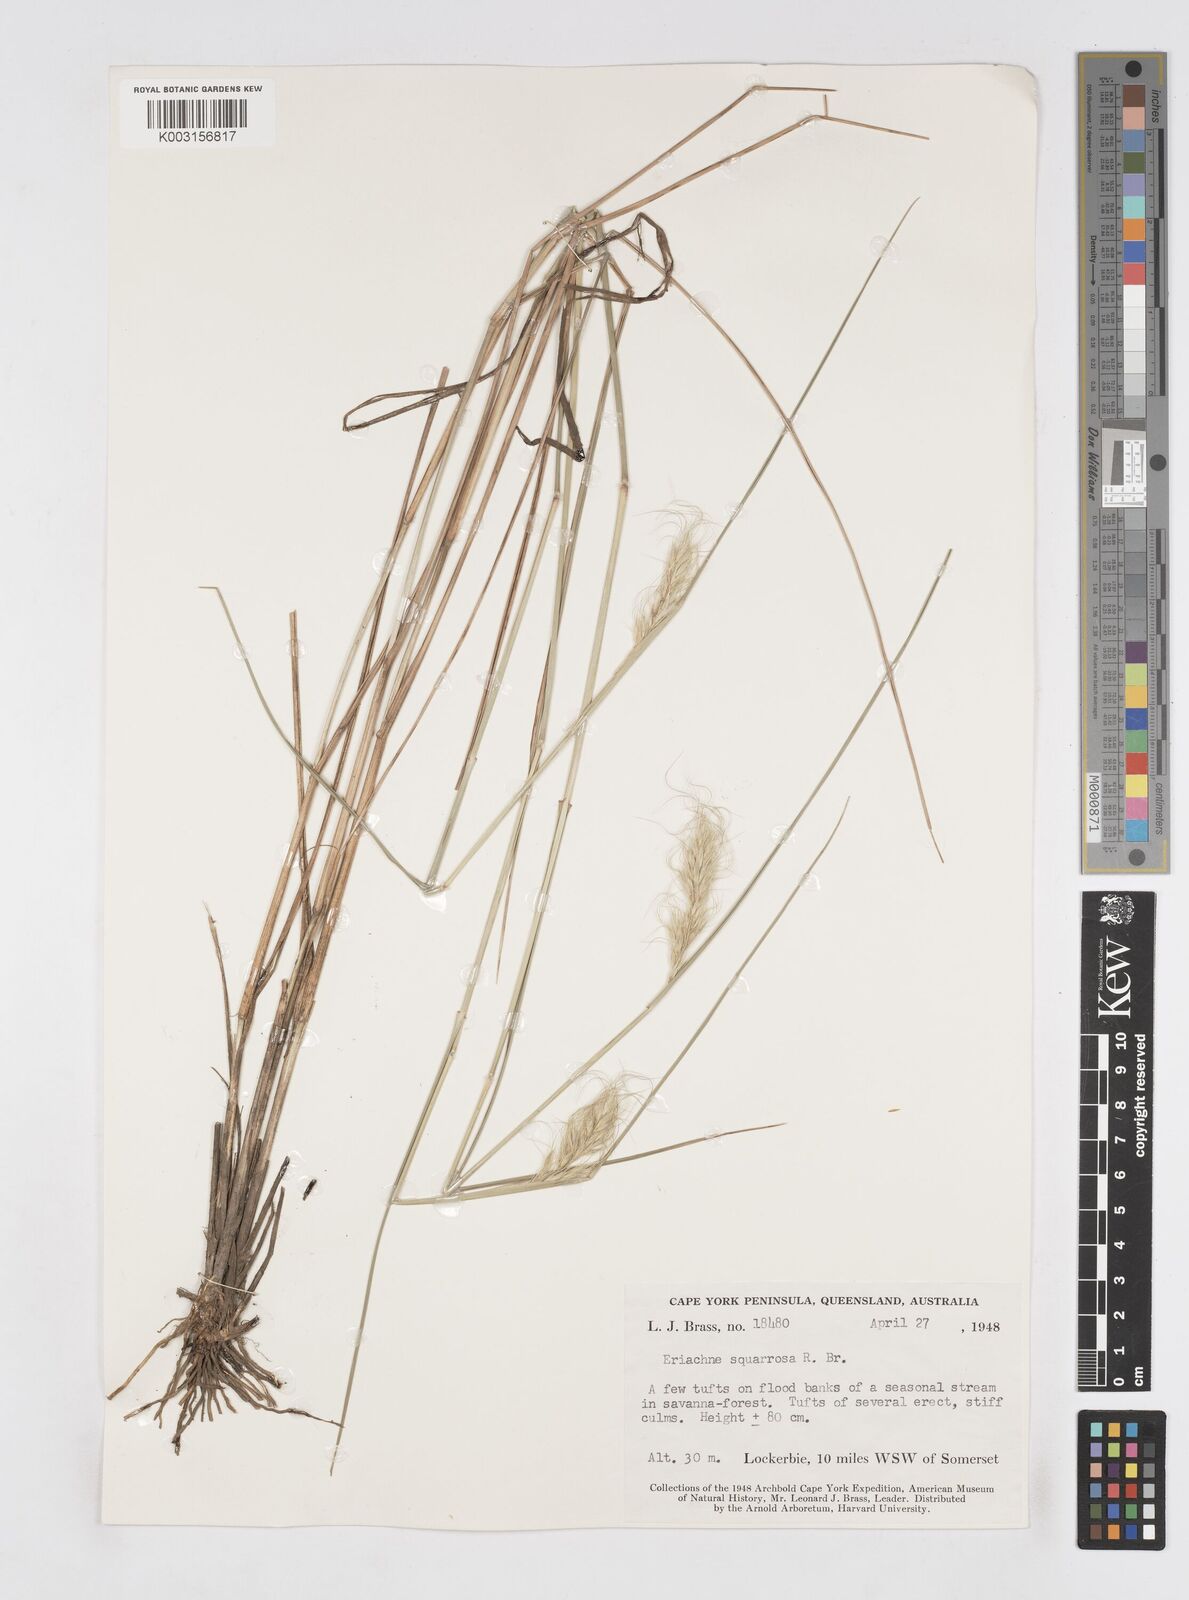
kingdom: Plantae
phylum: Tracheophyta
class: Liliopsida
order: Poales
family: Poaceae
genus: Eriachne
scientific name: Eriachne squarrosa
